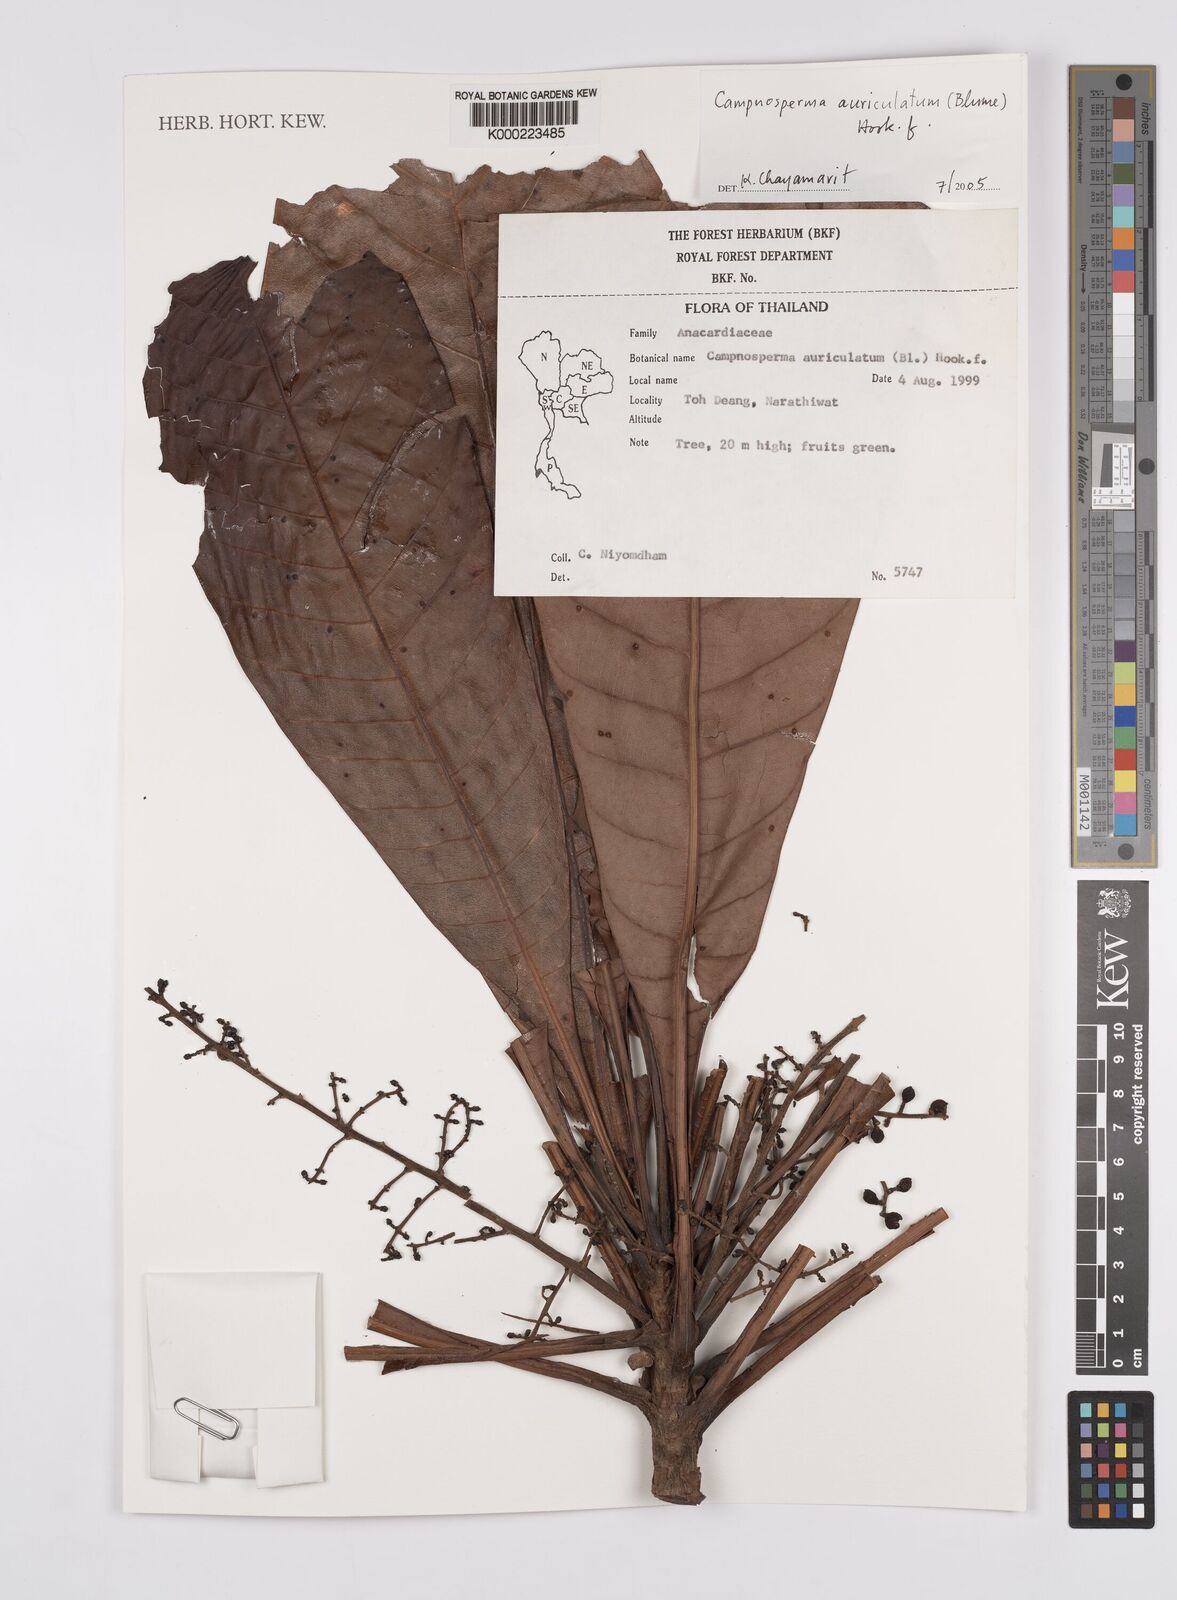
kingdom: Plantae
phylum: Tracheophyta
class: Magnoliopsida
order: Sapindales
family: Anacardiaceae
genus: Campnosperma
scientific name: Campnosperma auriculatum
